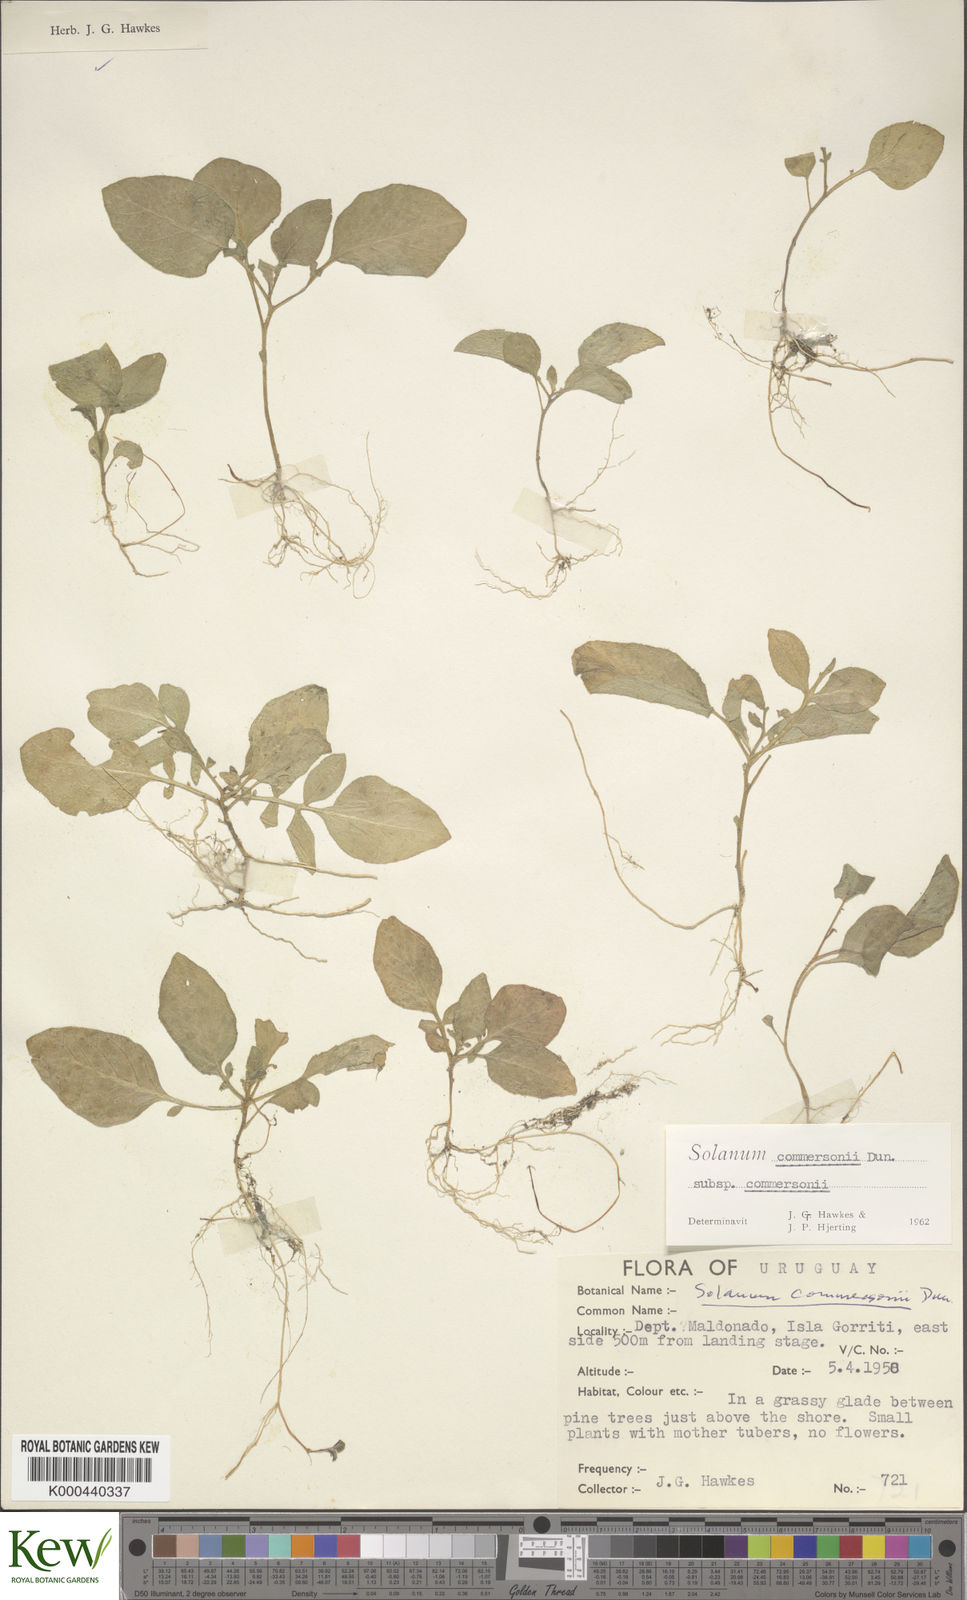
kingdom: Plantae
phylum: Tracheophyta
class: Magnoliopsida
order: Solanales
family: Solanaceae
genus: Solanum
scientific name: Solanum commersonii
